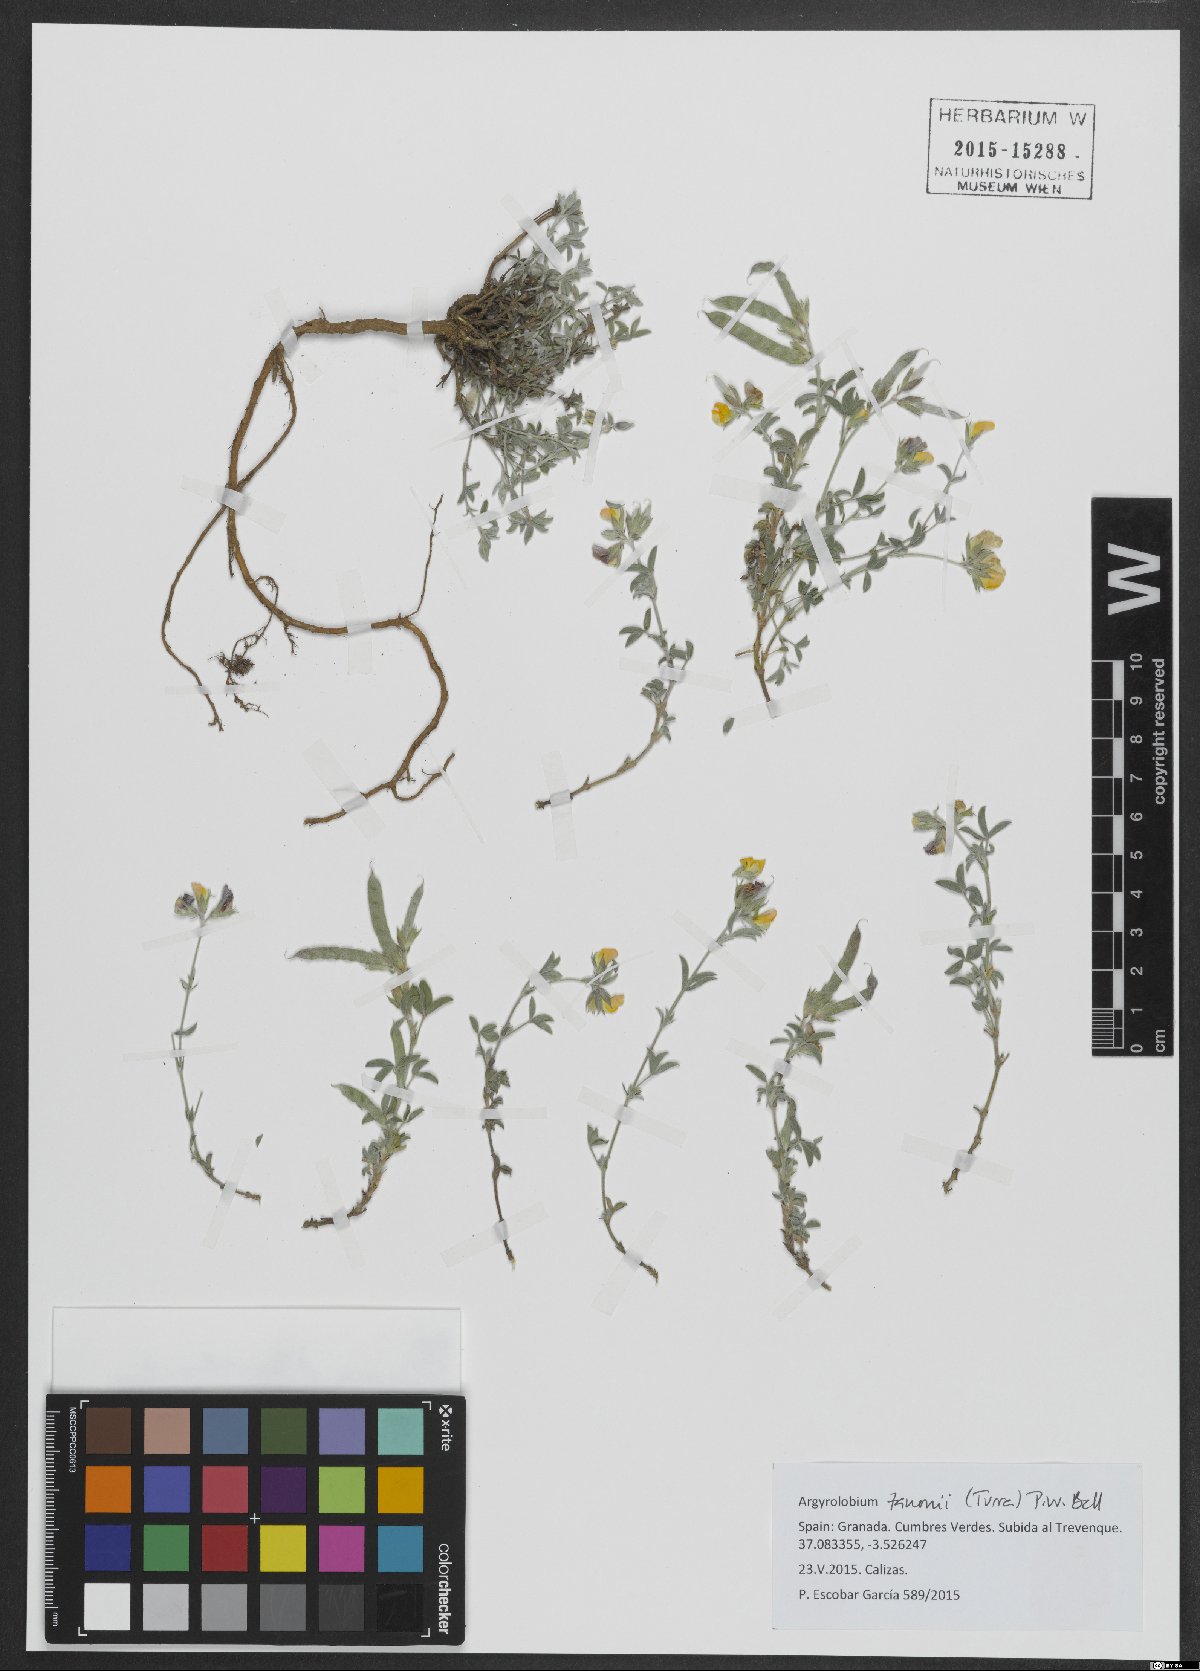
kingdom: Plantae
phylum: Tracheophyta
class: Magnoliopsida
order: Fabales
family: Fabaceae
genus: Argyrolobium
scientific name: Argyrolobium zanonii
